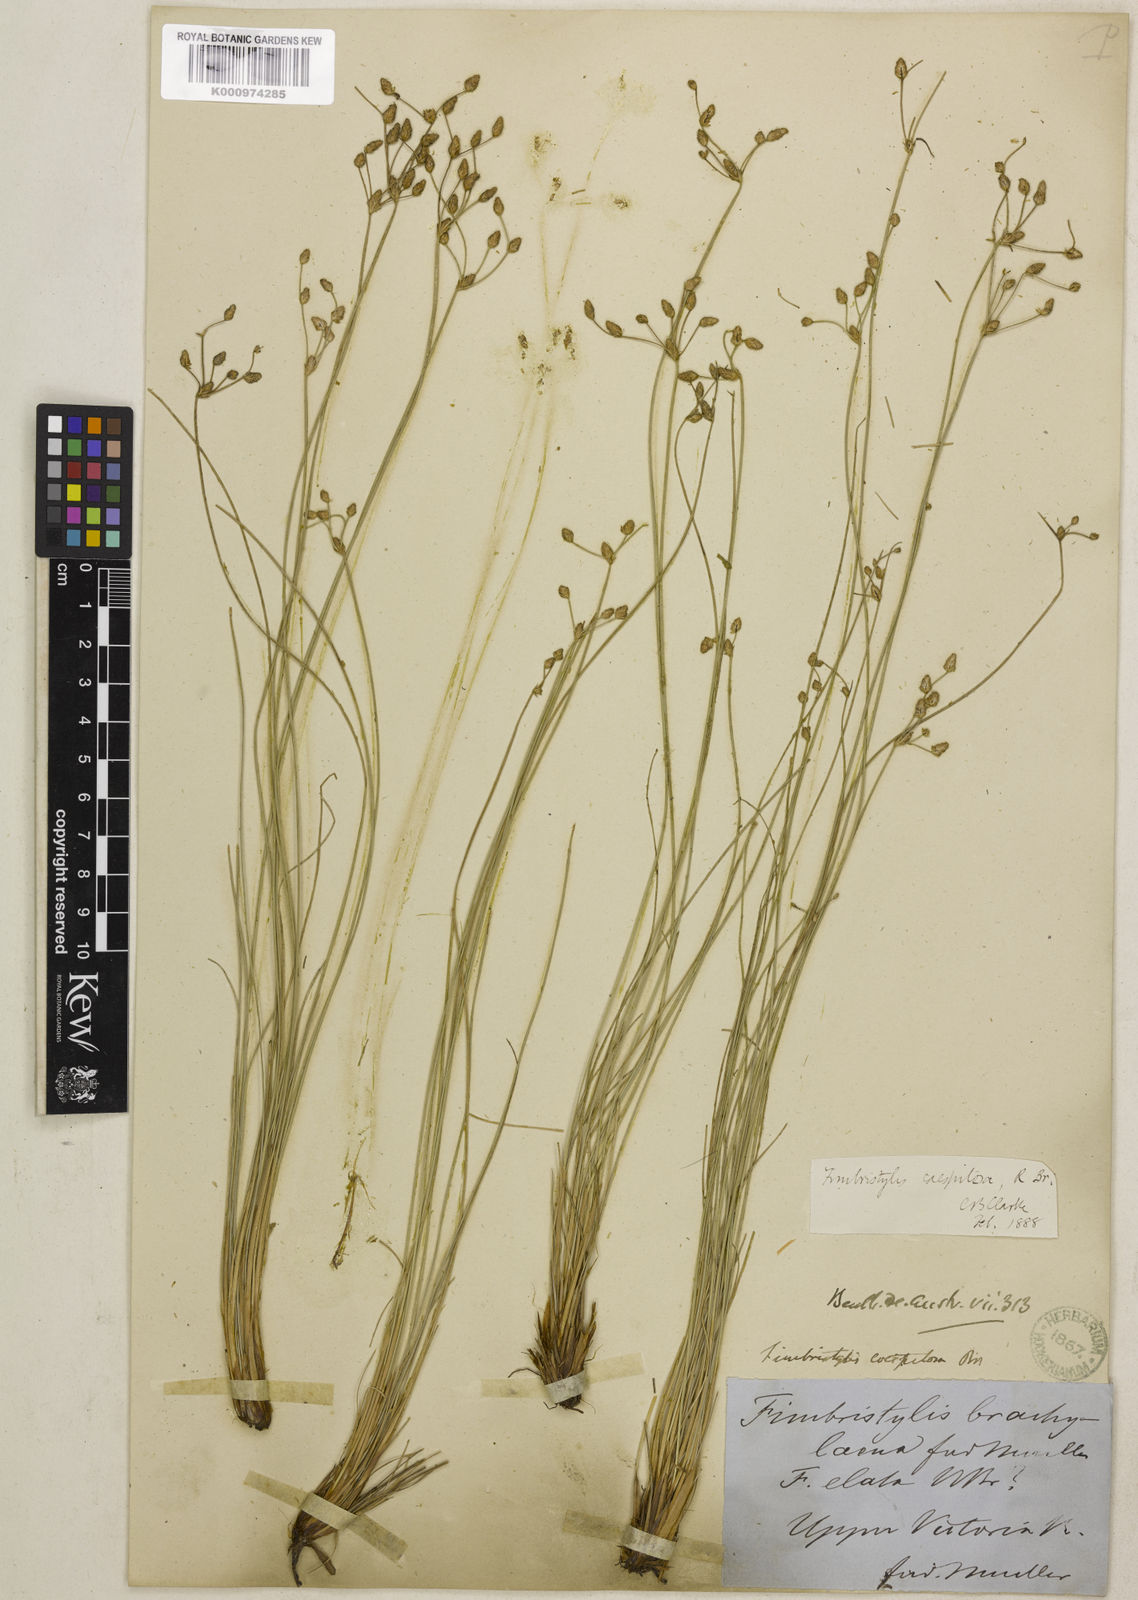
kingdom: Plantae
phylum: Tracheophyta
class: Liliopsida
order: Poales
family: Cyperaceae
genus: Fimbristylis
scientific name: Fimbristylis caespitosa
